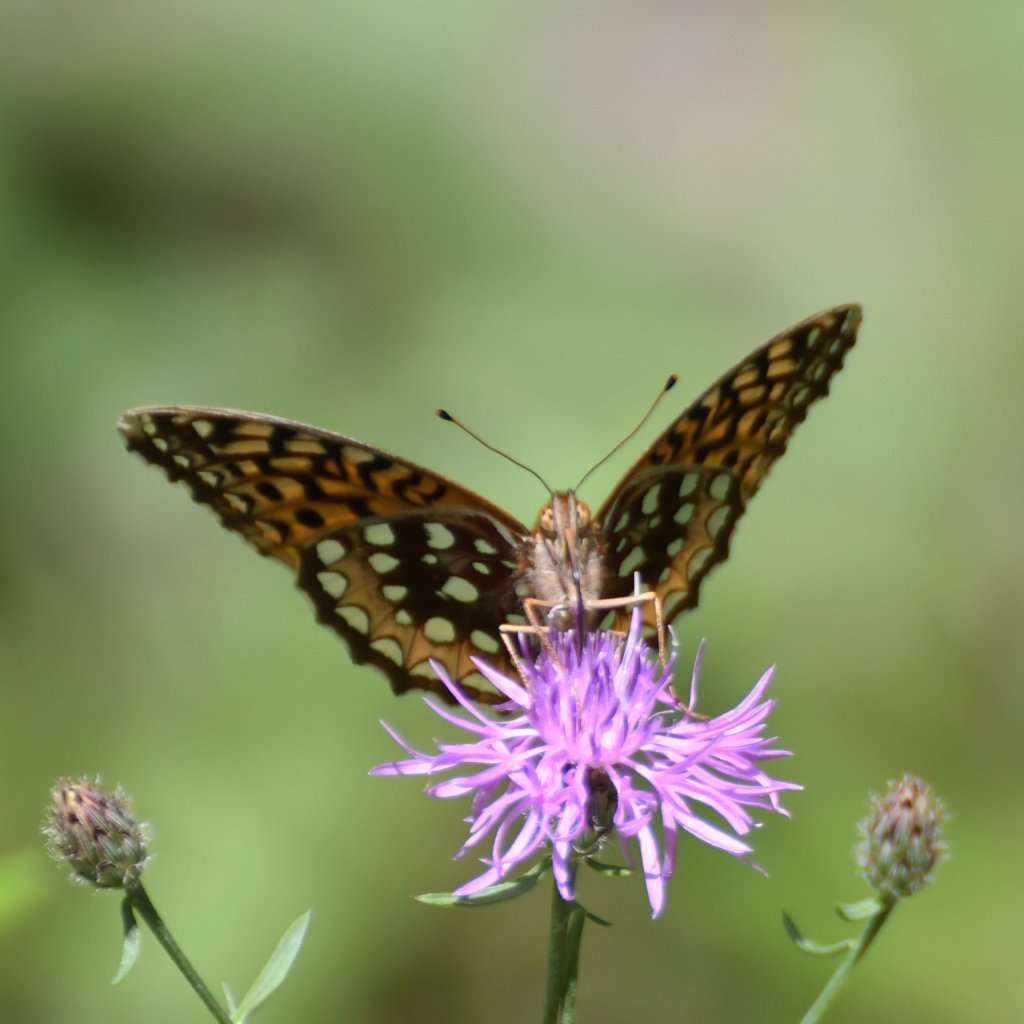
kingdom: Animalia
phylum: Arthropoda
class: Insecta
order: Lepidoptera
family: Nymphalidae
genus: Speyeria
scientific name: Speyeria cybele
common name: Great Spangled Fritillary
